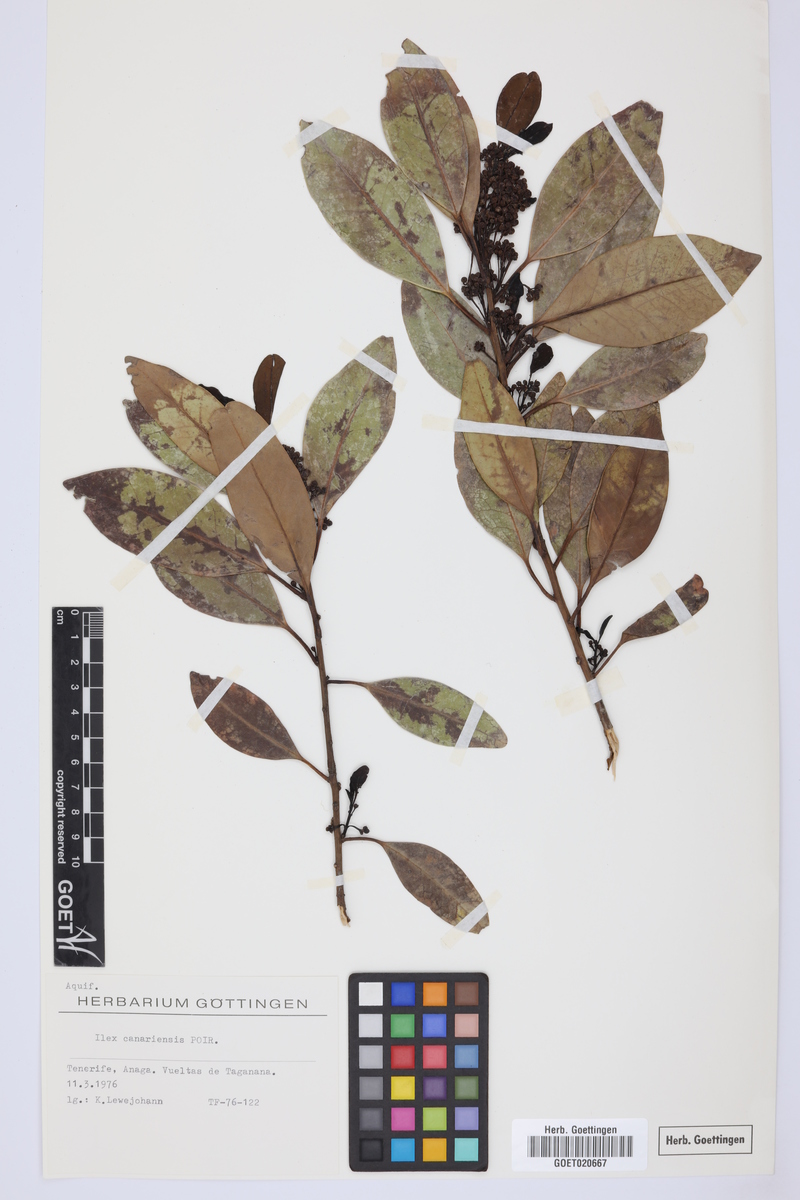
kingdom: Plantae
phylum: Tracheophyta
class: Magnoliopsida
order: Aquifoliales
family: Aquifoliaceae
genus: Ilex
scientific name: Ilex canariensis
